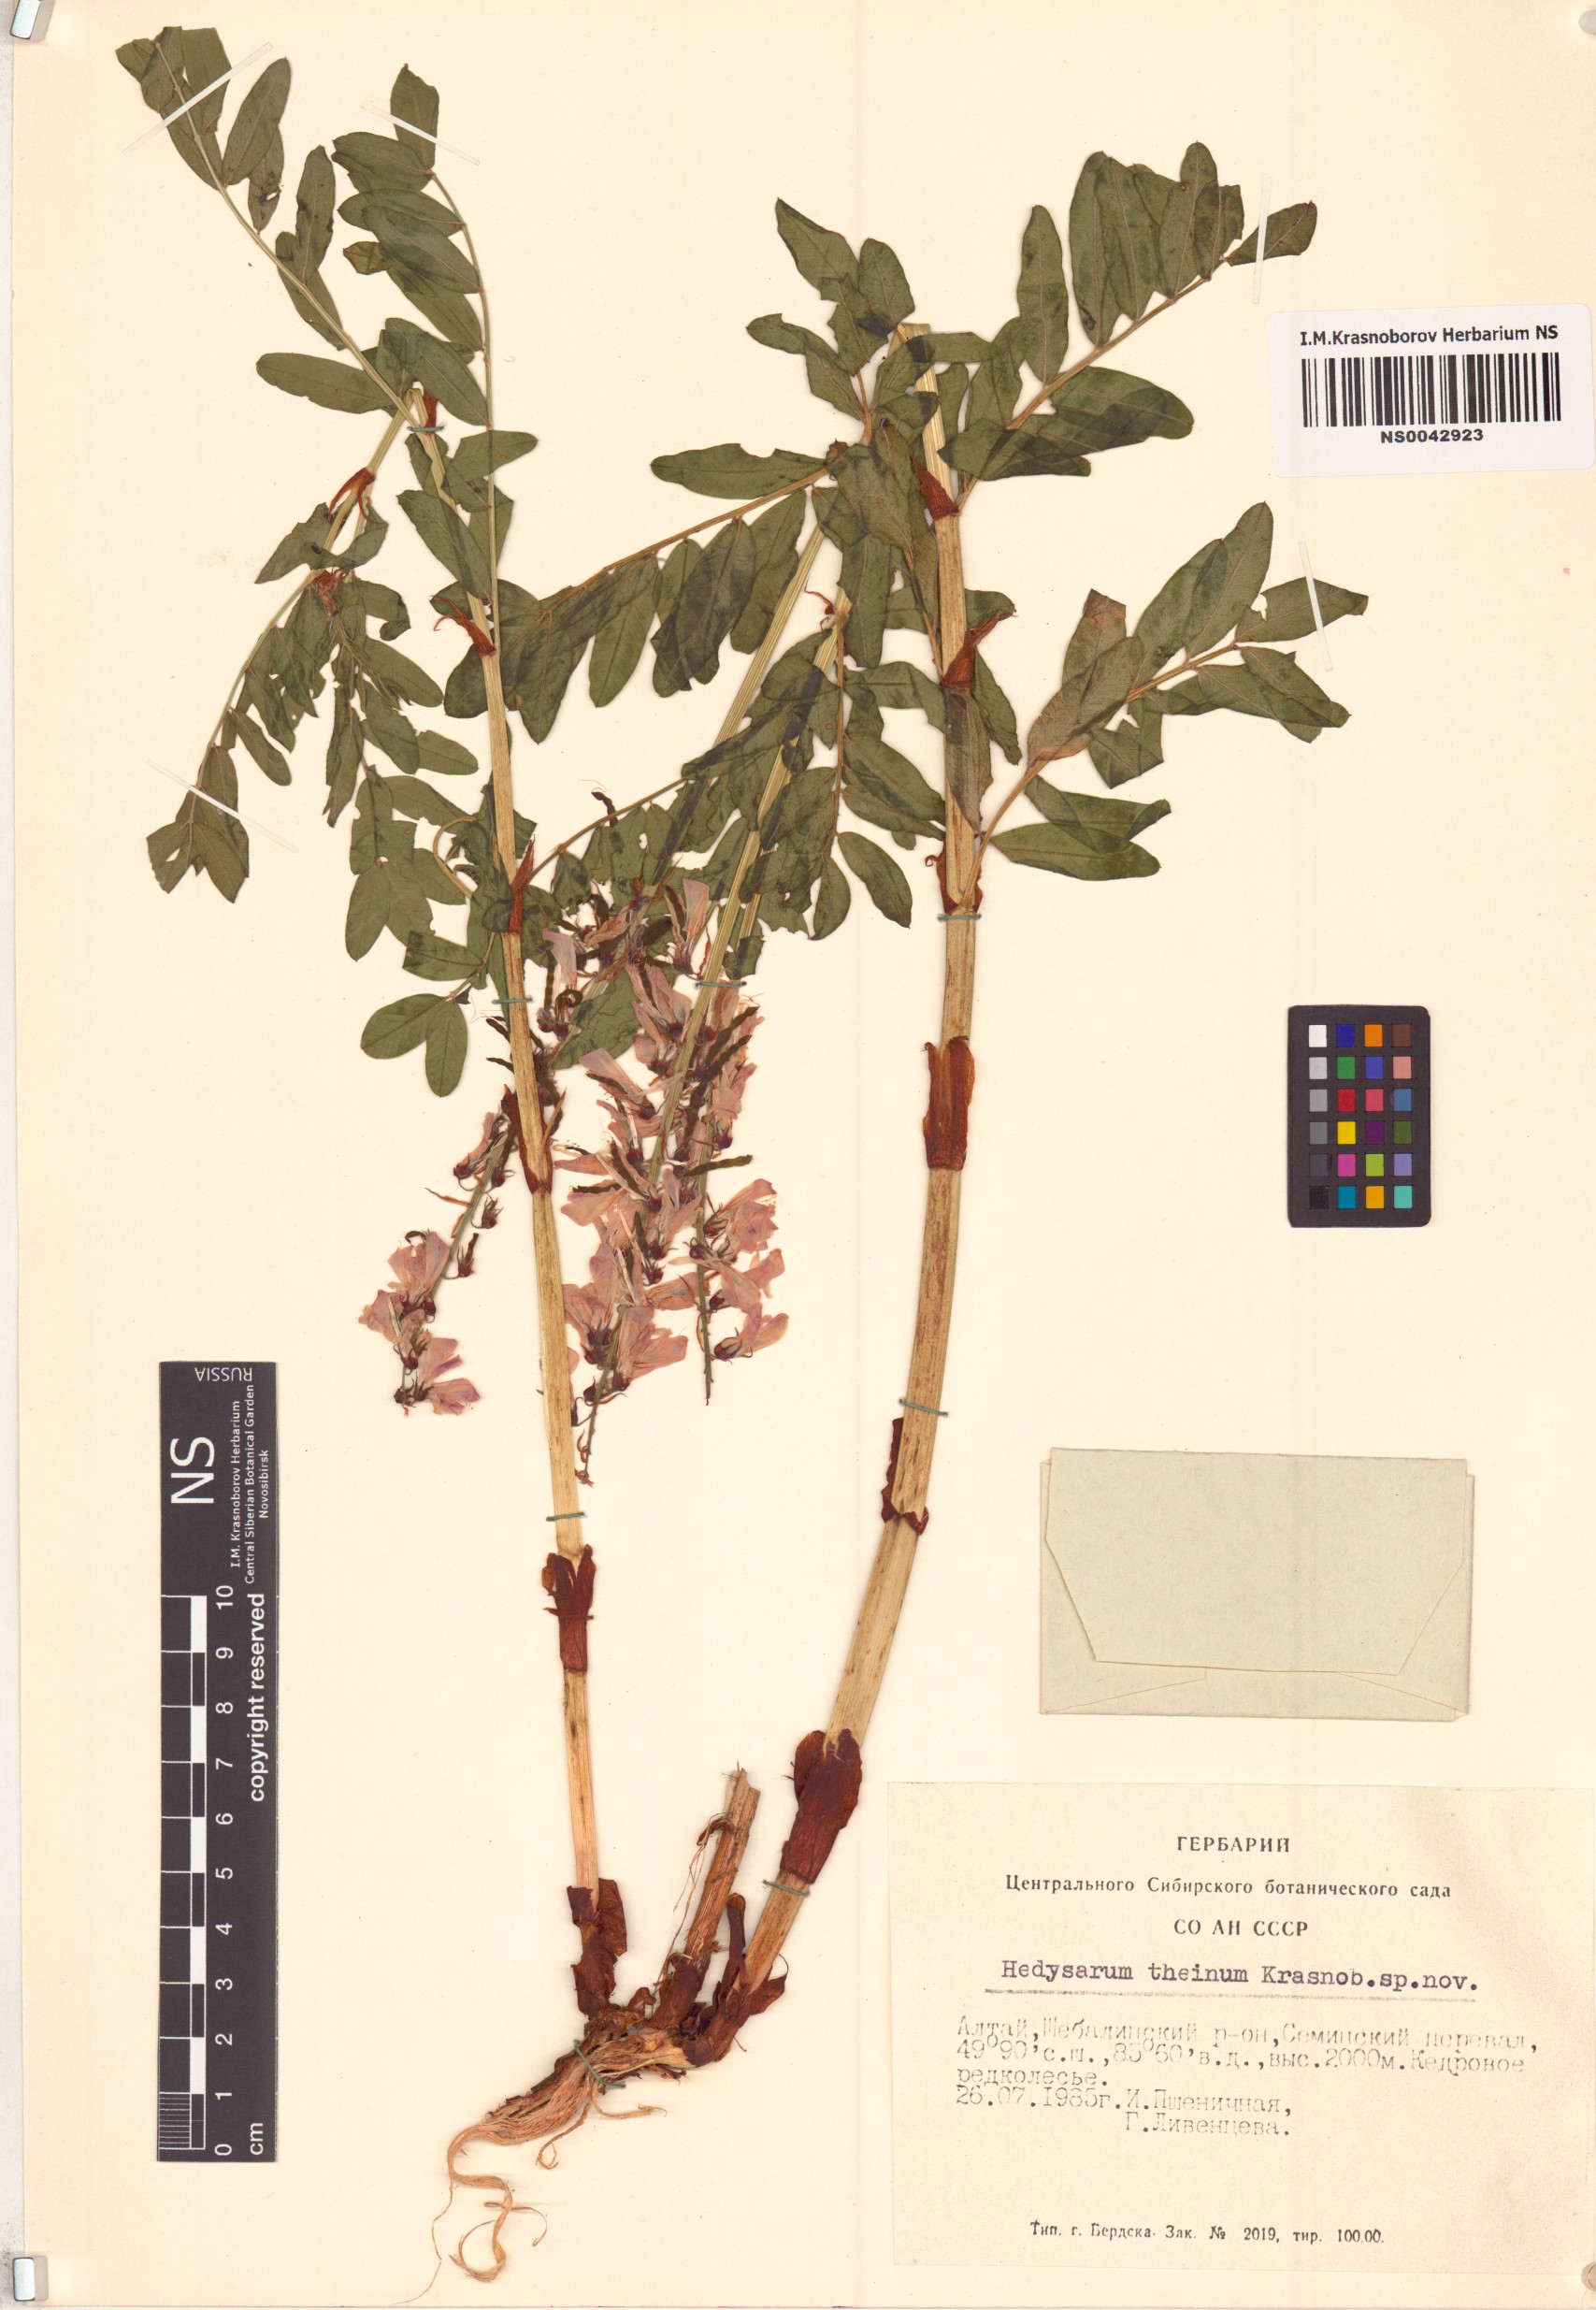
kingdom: Plantae
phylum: Tracheophyta
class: Magnoliopsida
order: Fabales
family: Fabaceae
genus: Hedysarum
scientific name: Hedysarum theinum
